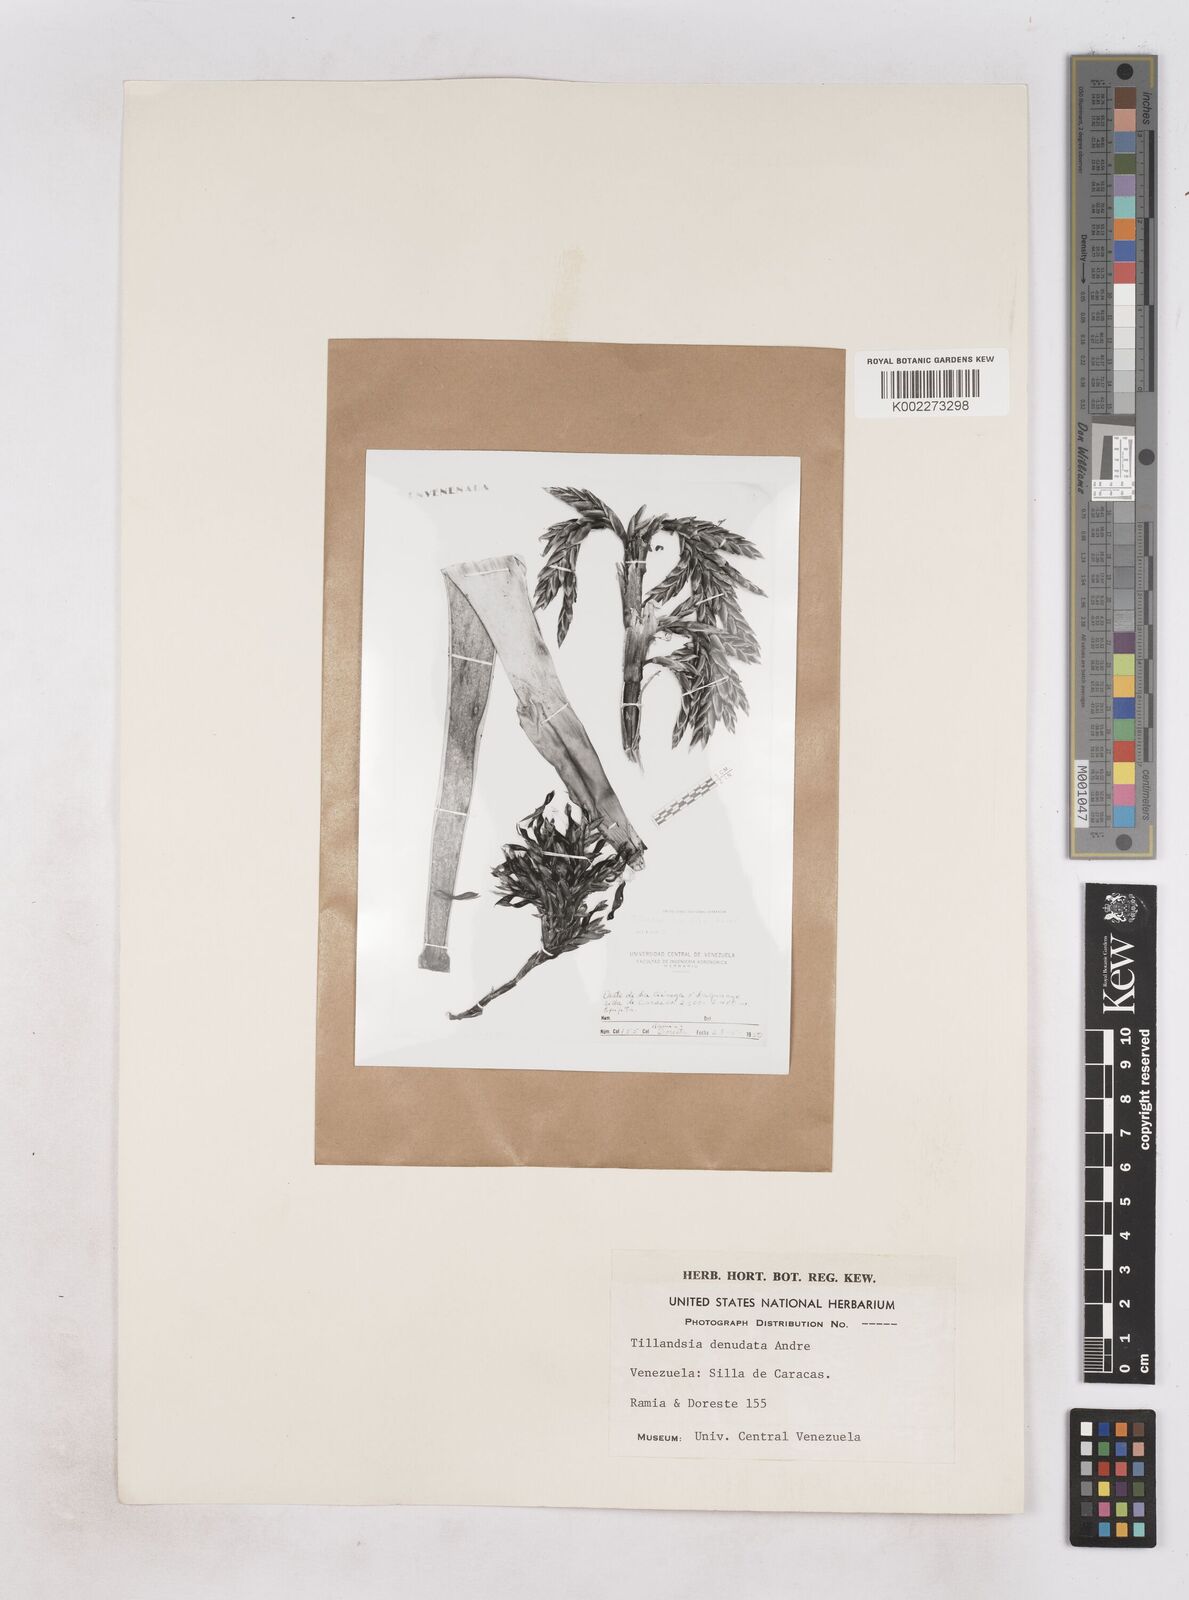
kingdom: Plantae
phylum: Tracheophyta
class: Liliopsida
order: Poales
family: Bromeliaceae
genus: Tillandsia
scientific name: Tillandsia denudata
